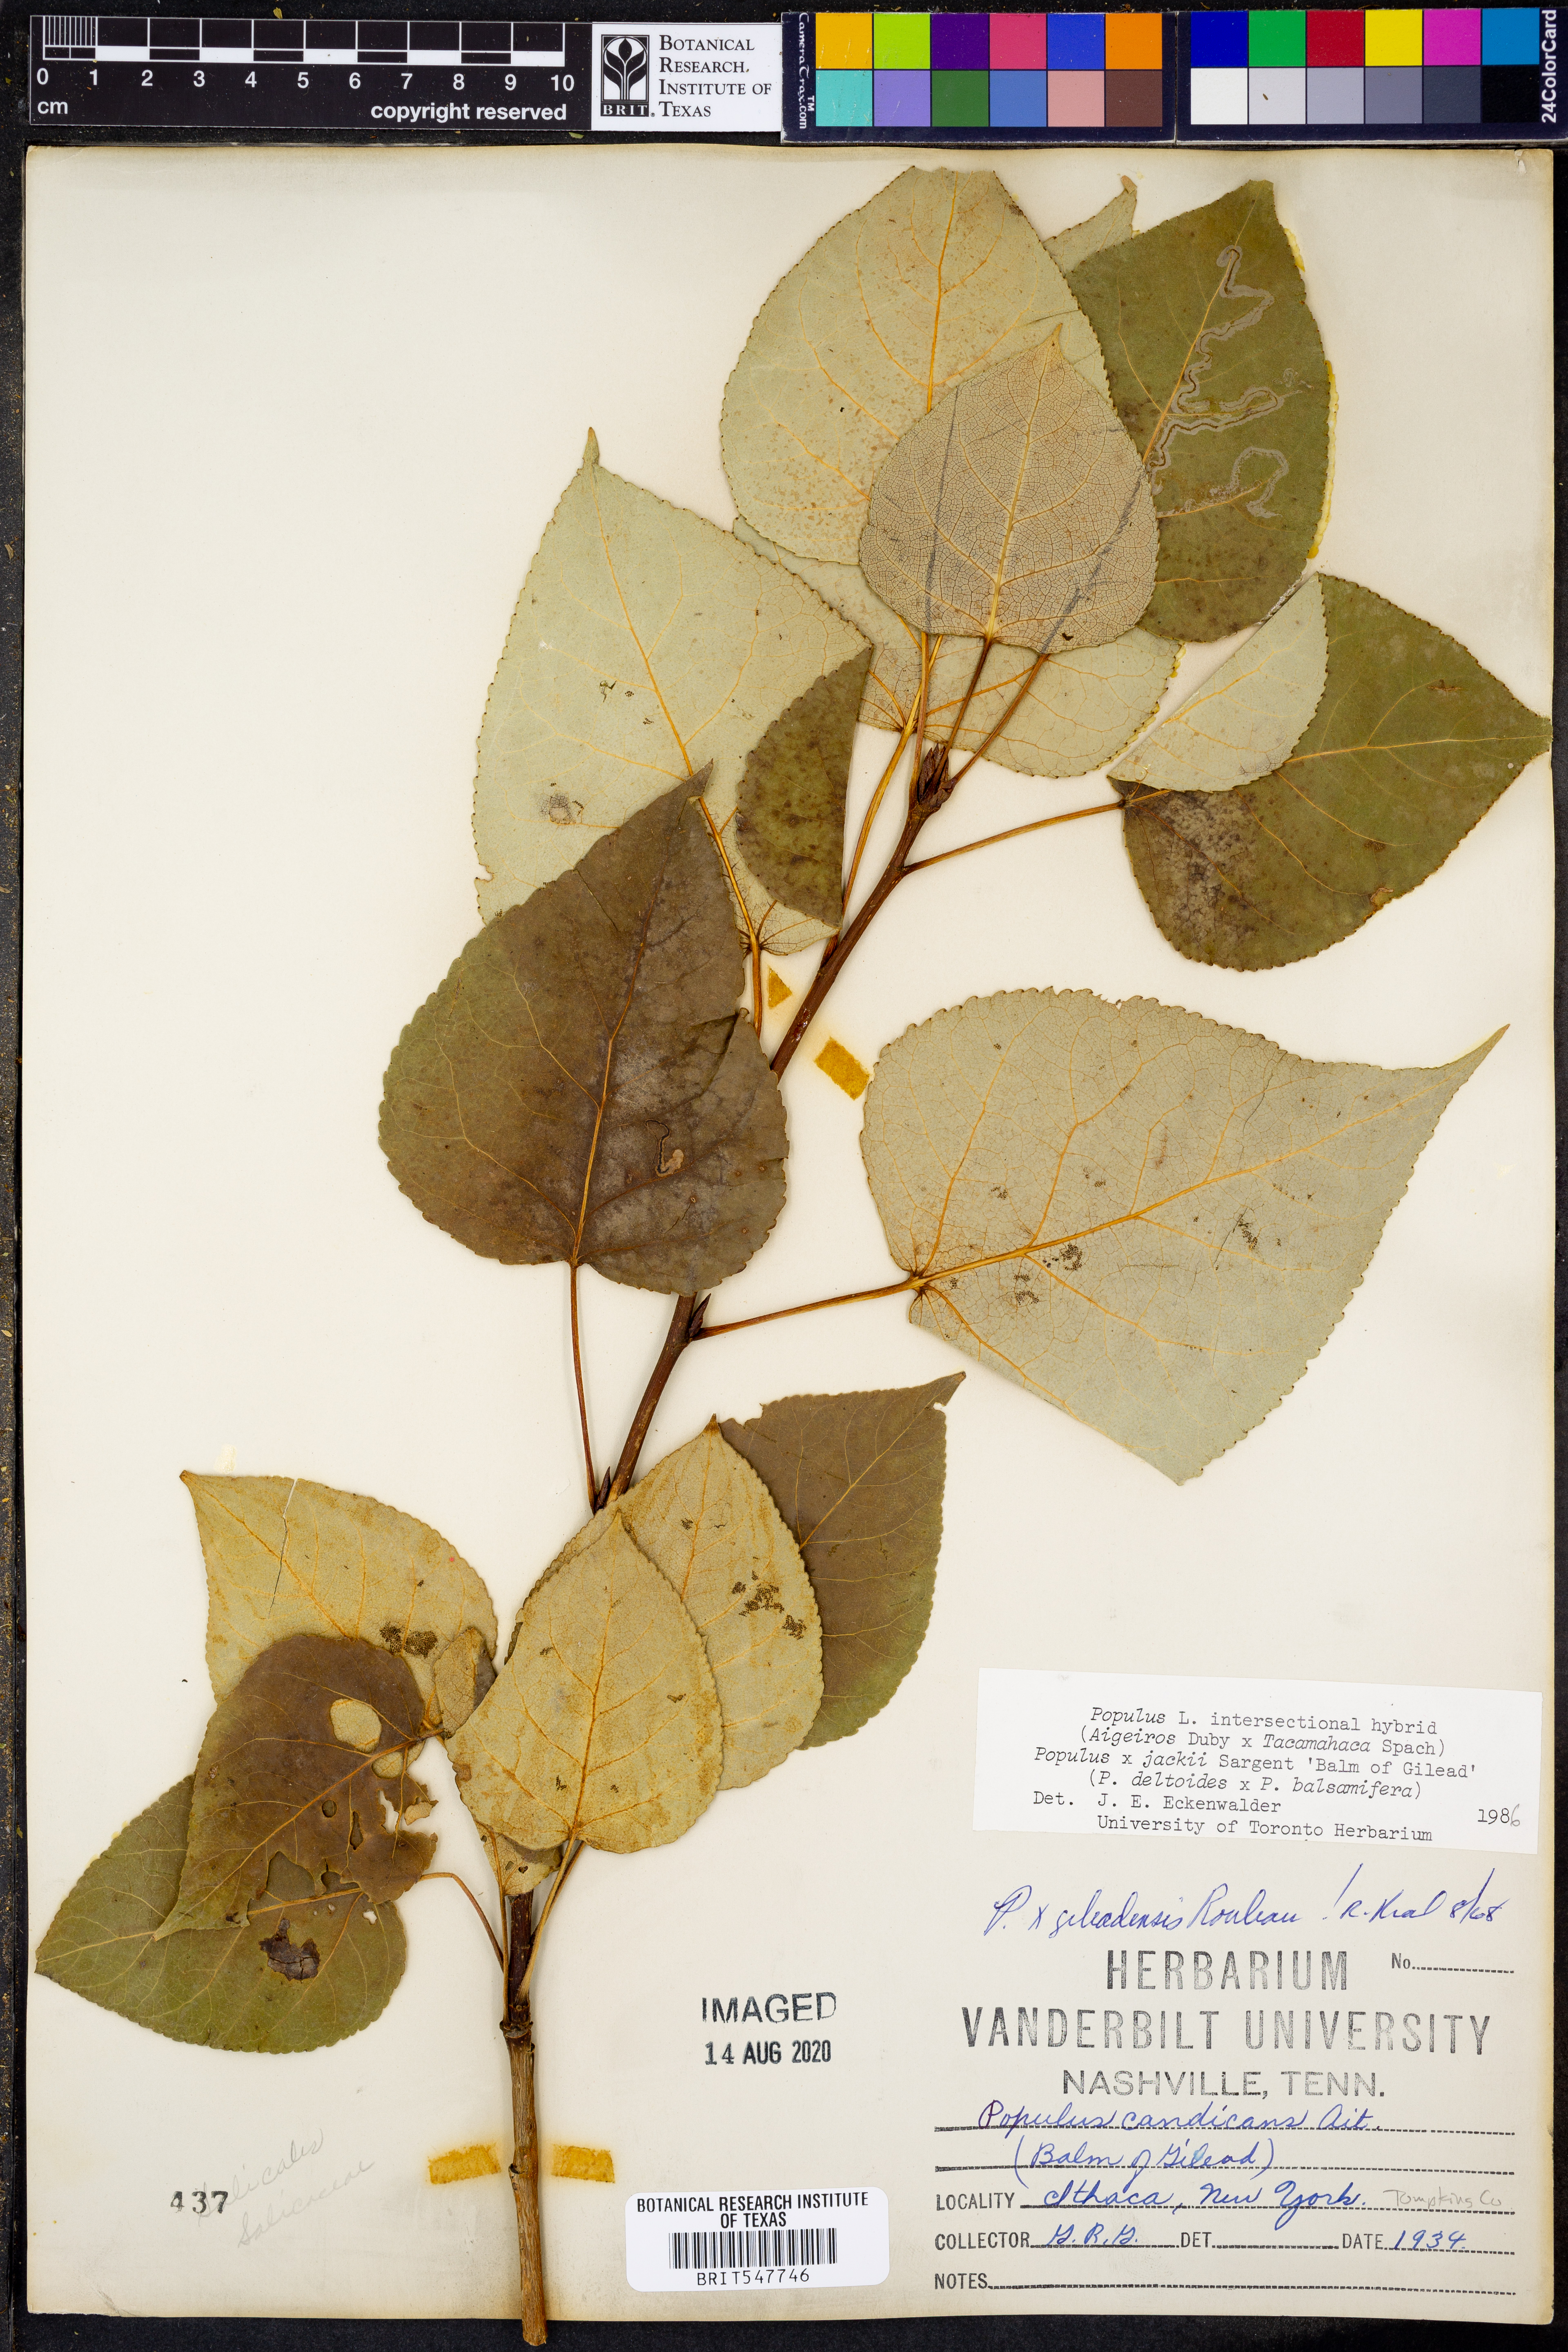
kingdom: Plantae
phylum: Tracheophyta
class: Magnoliopsida
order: Malpighiales
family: Salicaceae
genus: Populus
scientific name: Populus
